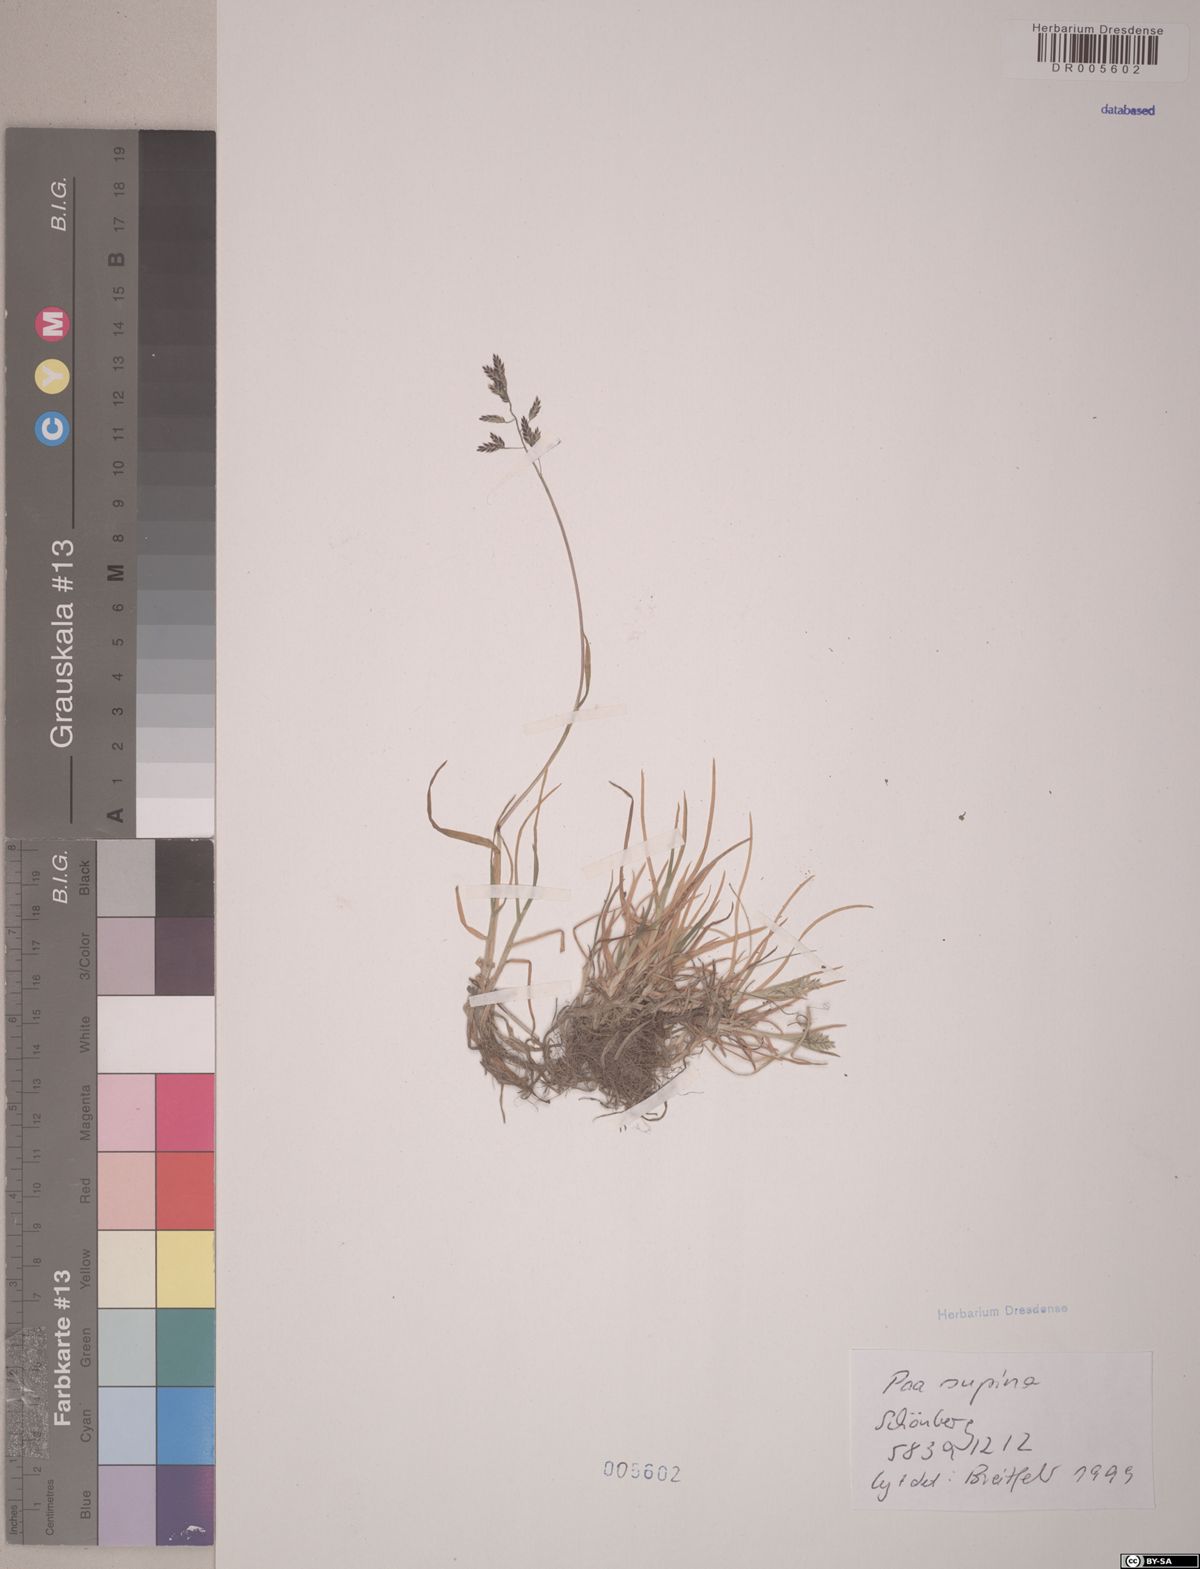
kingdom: Plantae
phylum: Tracheophyta
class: Liliopsida
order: Poales
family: Poaceae
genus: Poa
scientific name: Poa supina
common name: Supina bluegrass
